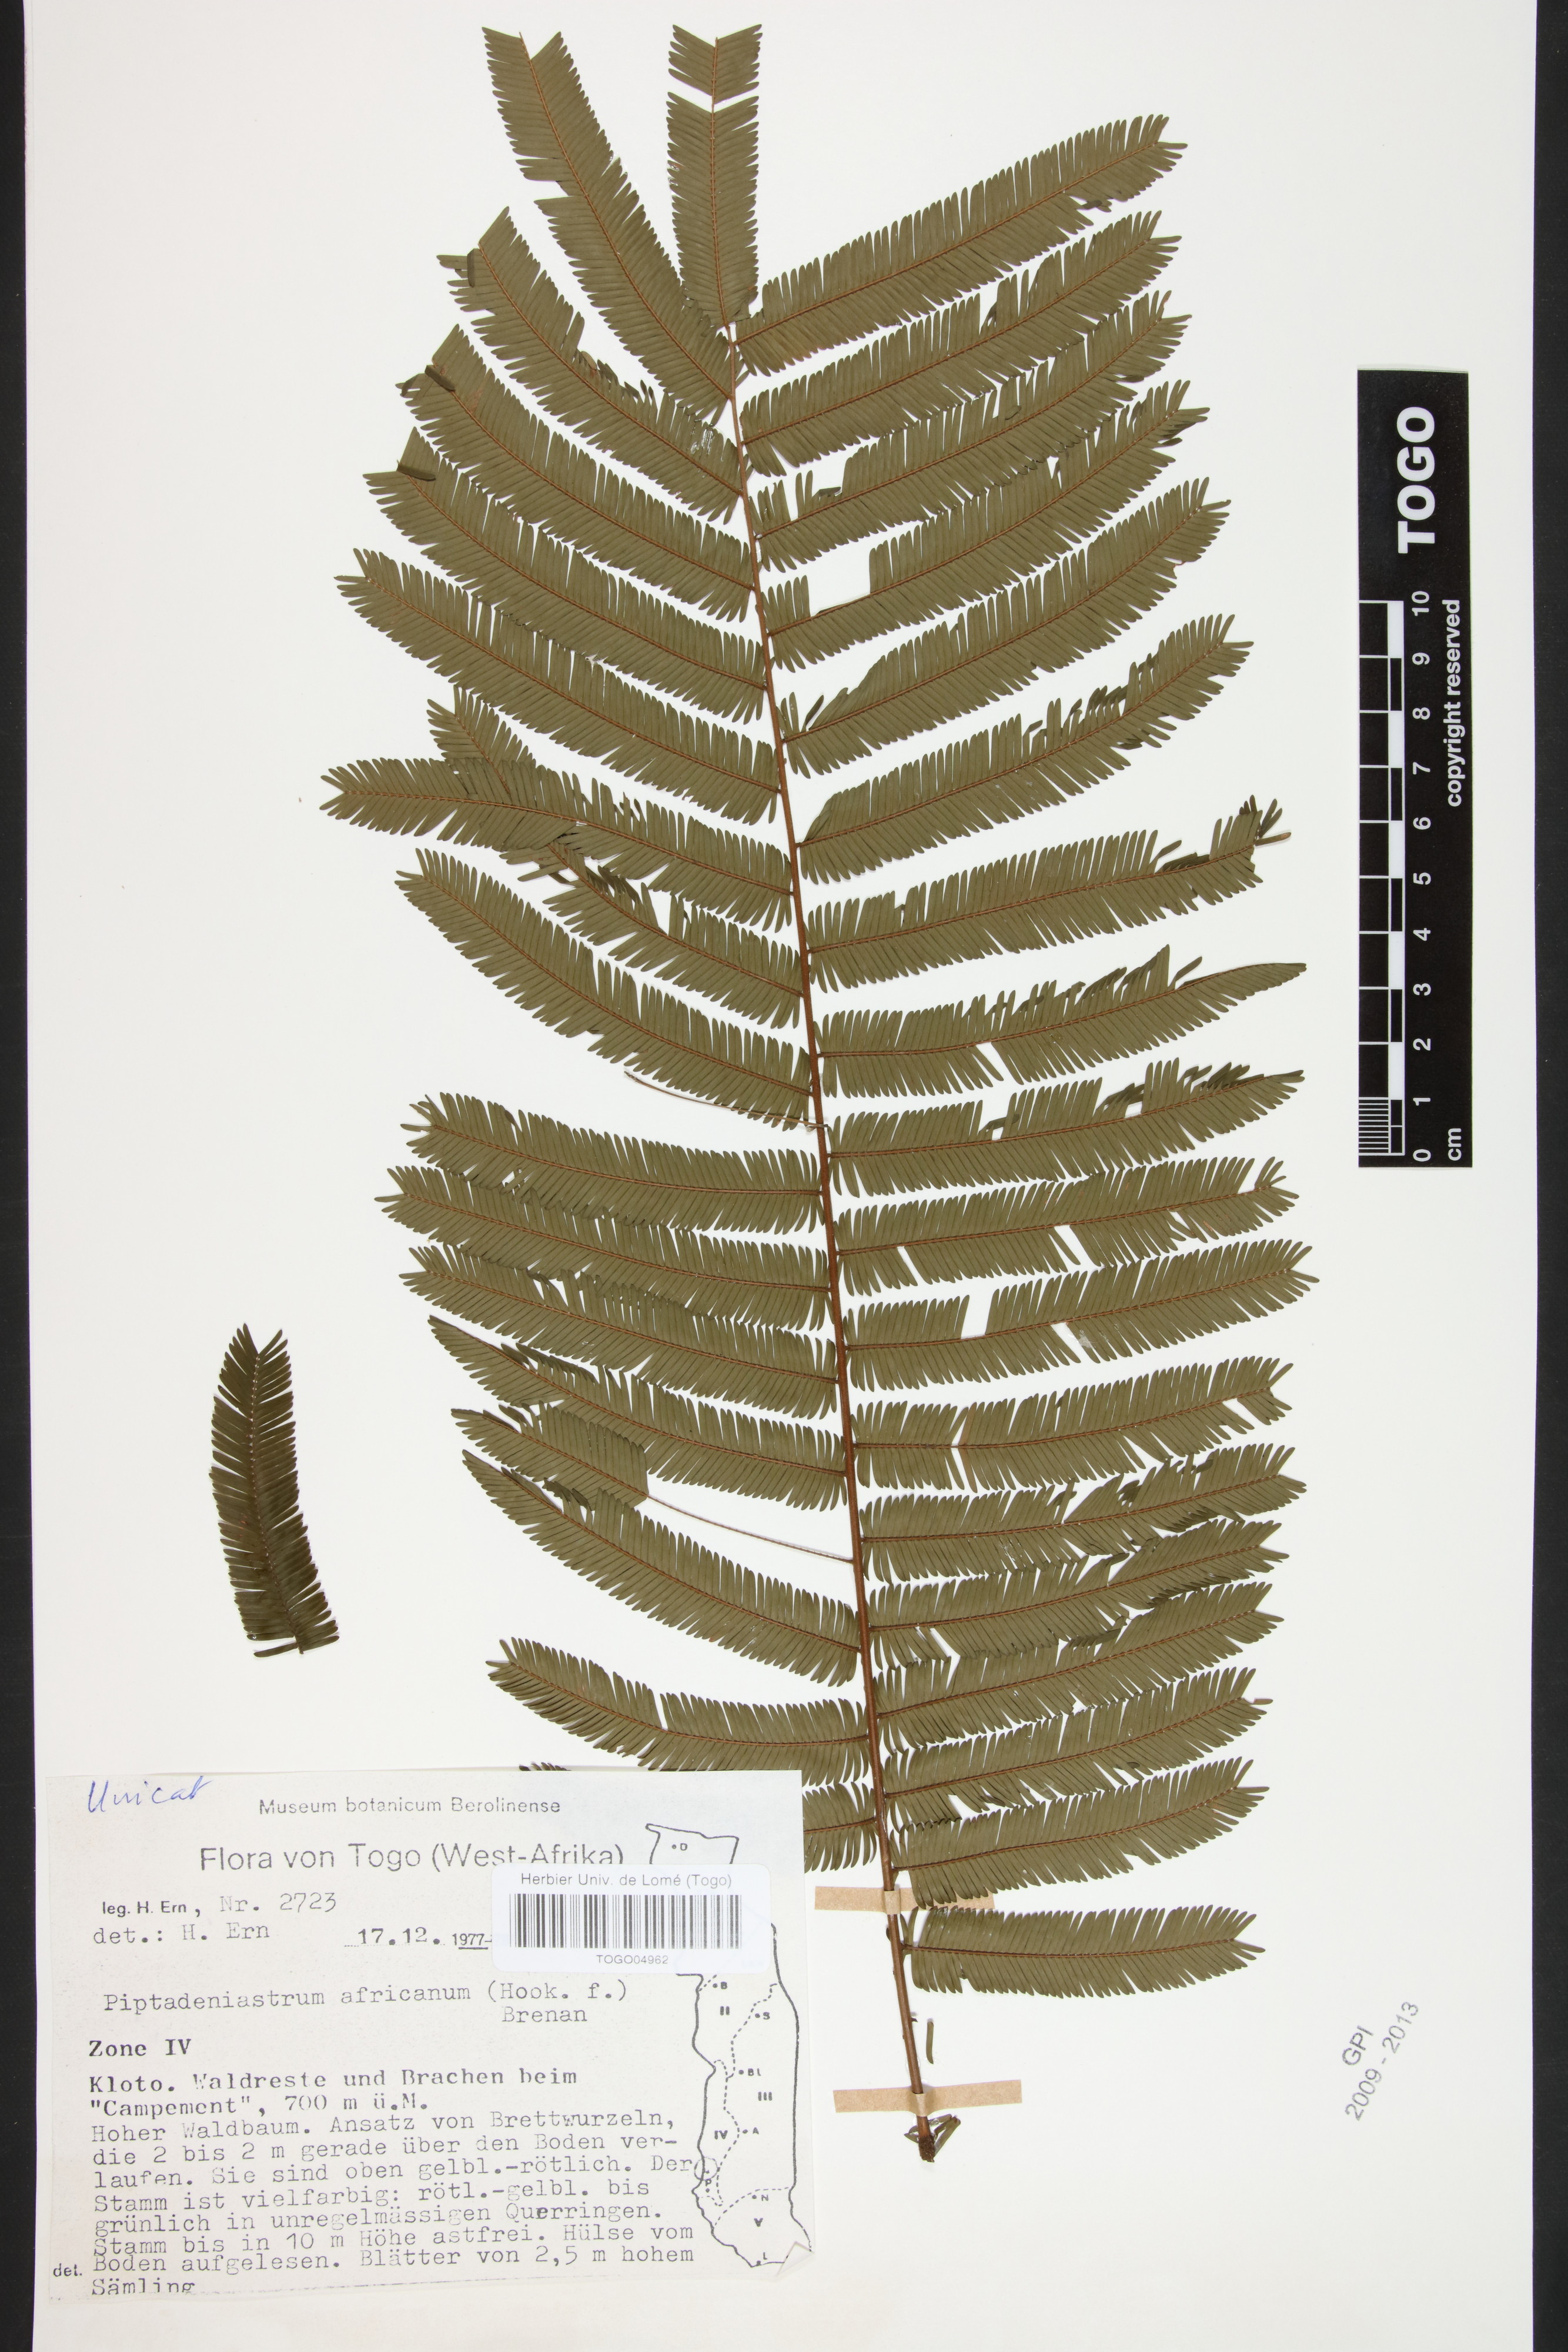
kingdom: Plantae
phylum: Tracheophyta
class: Magnoliopsida
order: Fabales
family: Fabaceae
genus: Piptadeniastrum
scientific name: Piptadeniastrum africanum
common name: African greenheart
